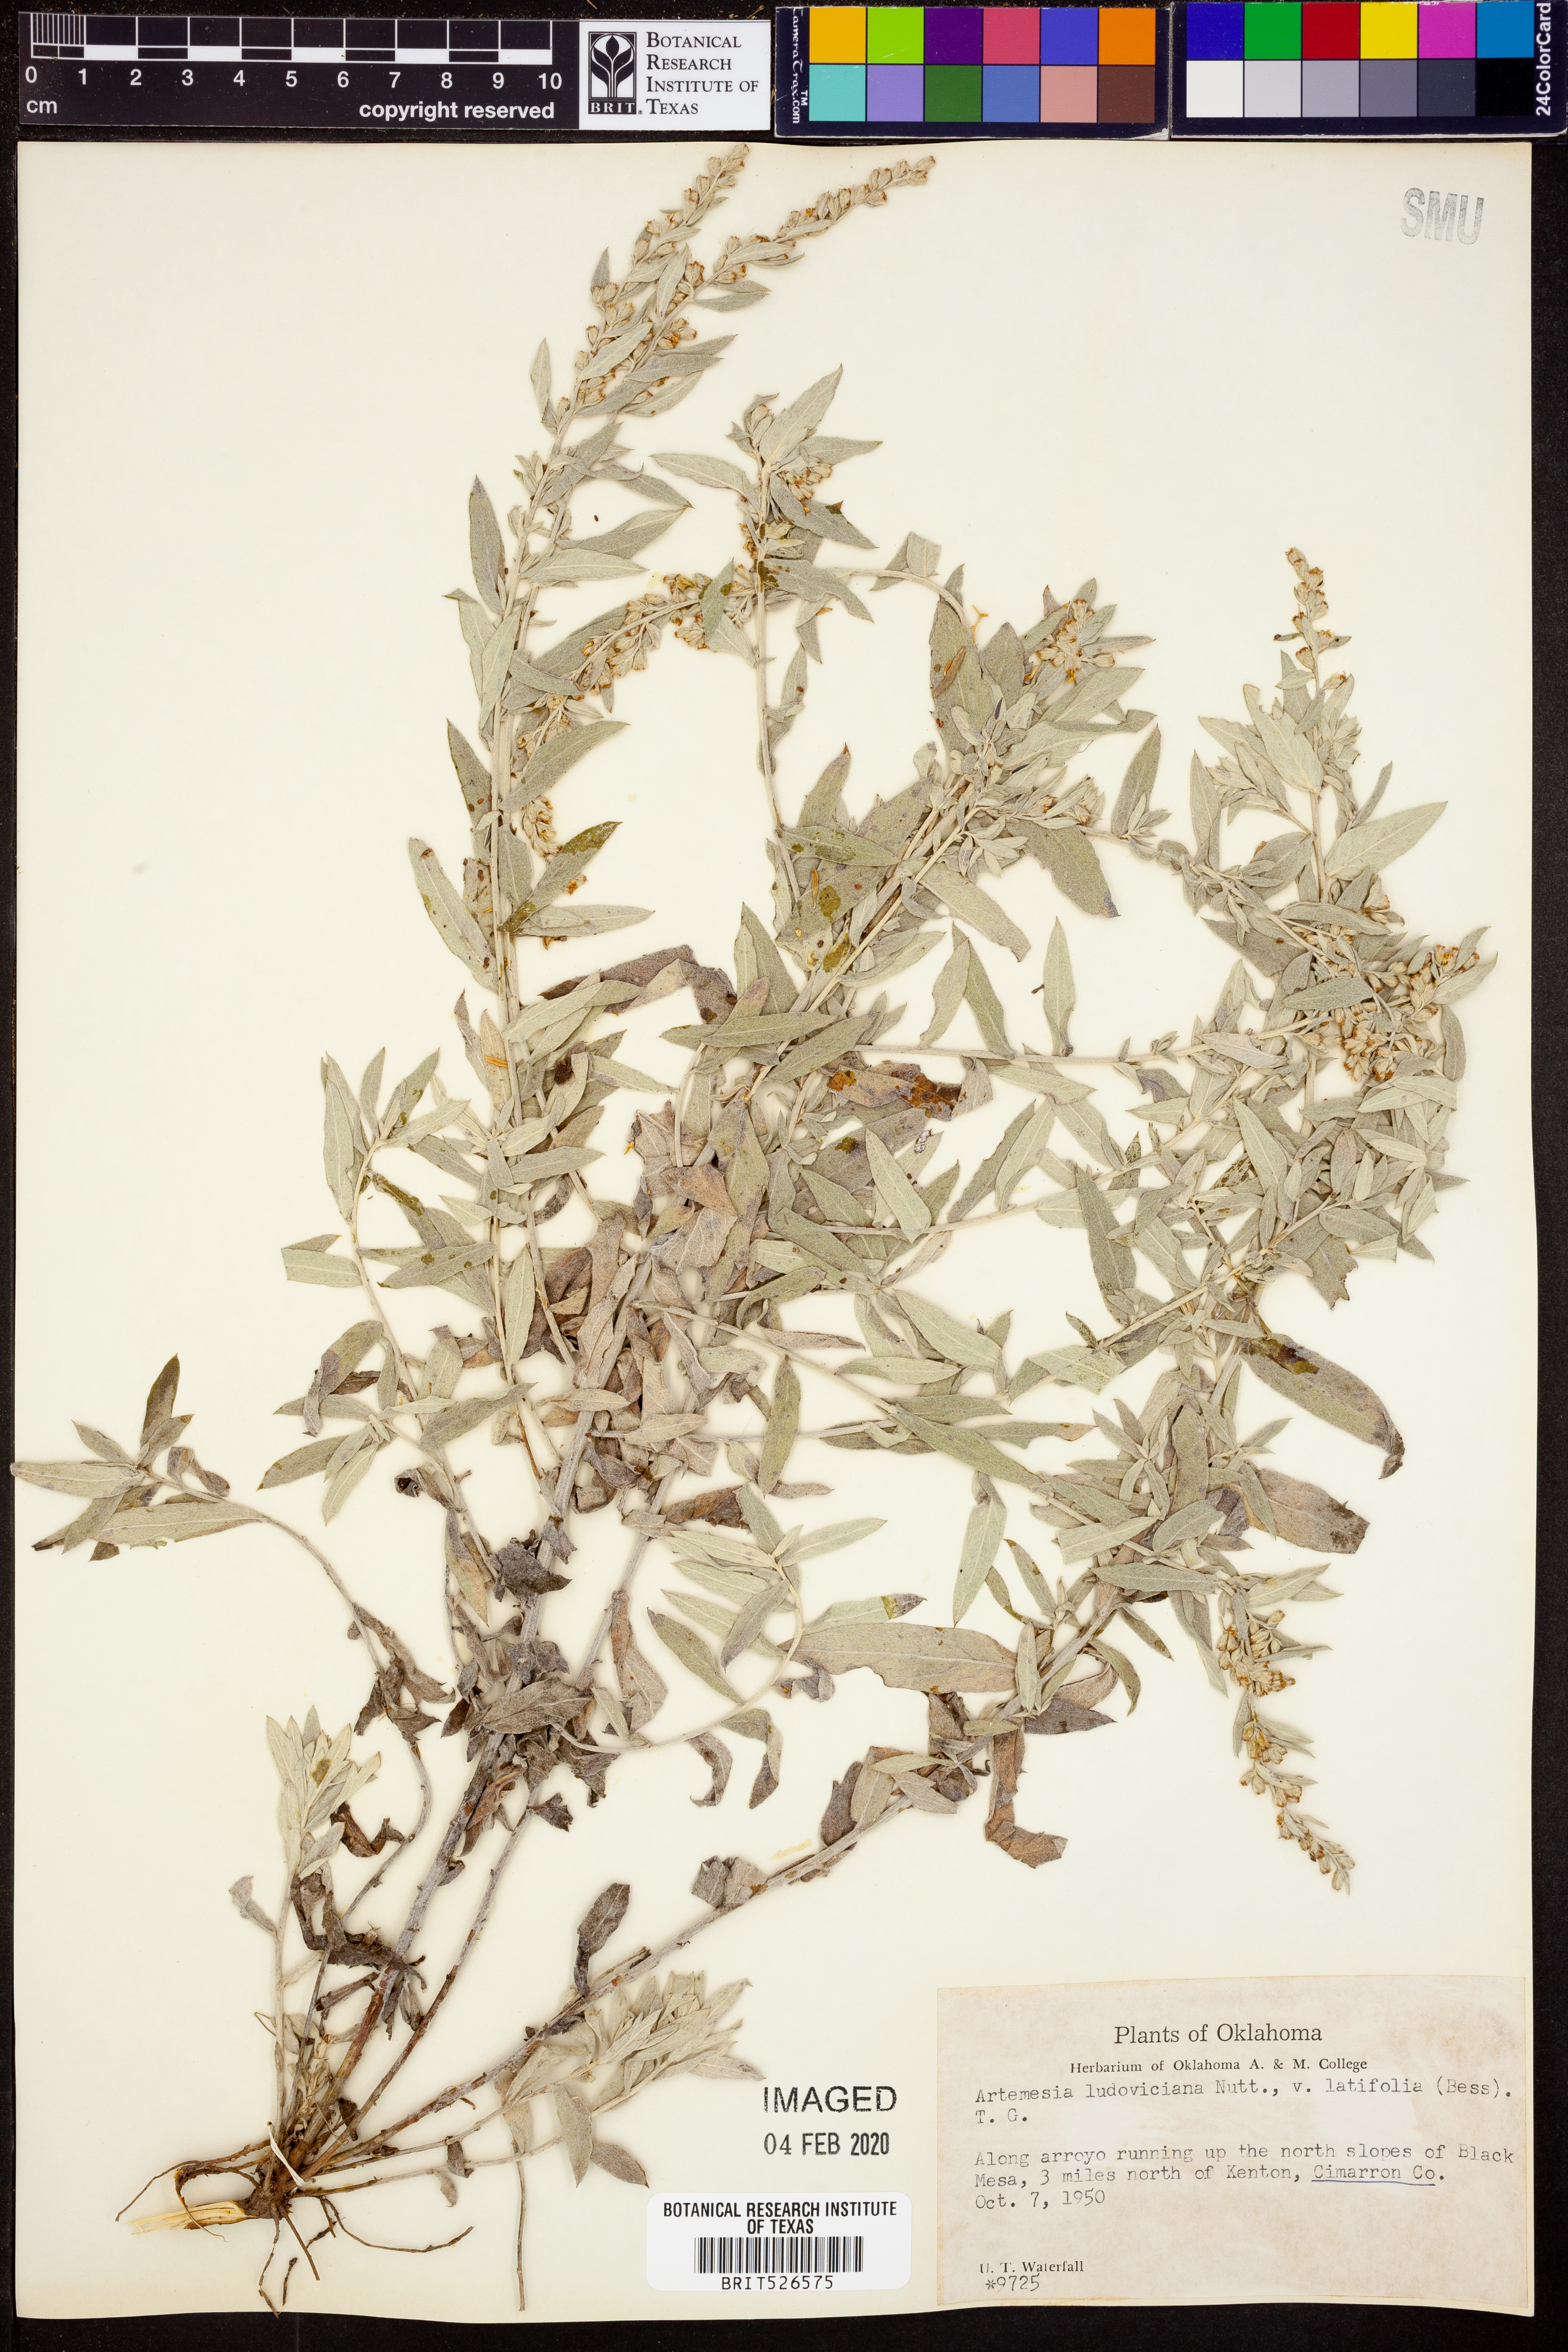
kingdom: Plantae
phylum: Tracheophyta
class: Magnoliopsida
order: Asterales
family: Asteraceae
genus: Artemisia
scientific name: Artemisia ludoviciana
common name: Western mugwort
